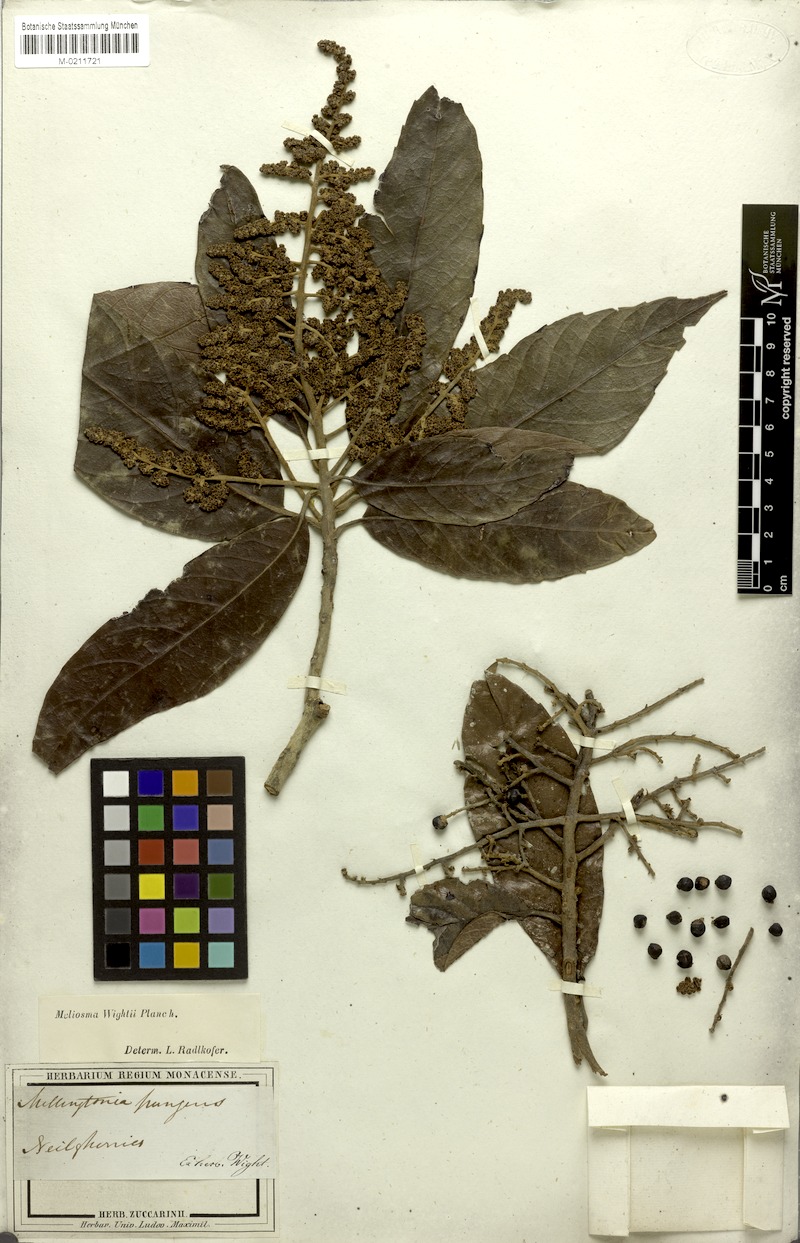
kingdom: Plantae
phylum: Tracheophyta
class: Magnoliopsida
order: Proteales
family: Sabiaceae
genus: Meliosma
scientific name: Meliosma simplicifolia
